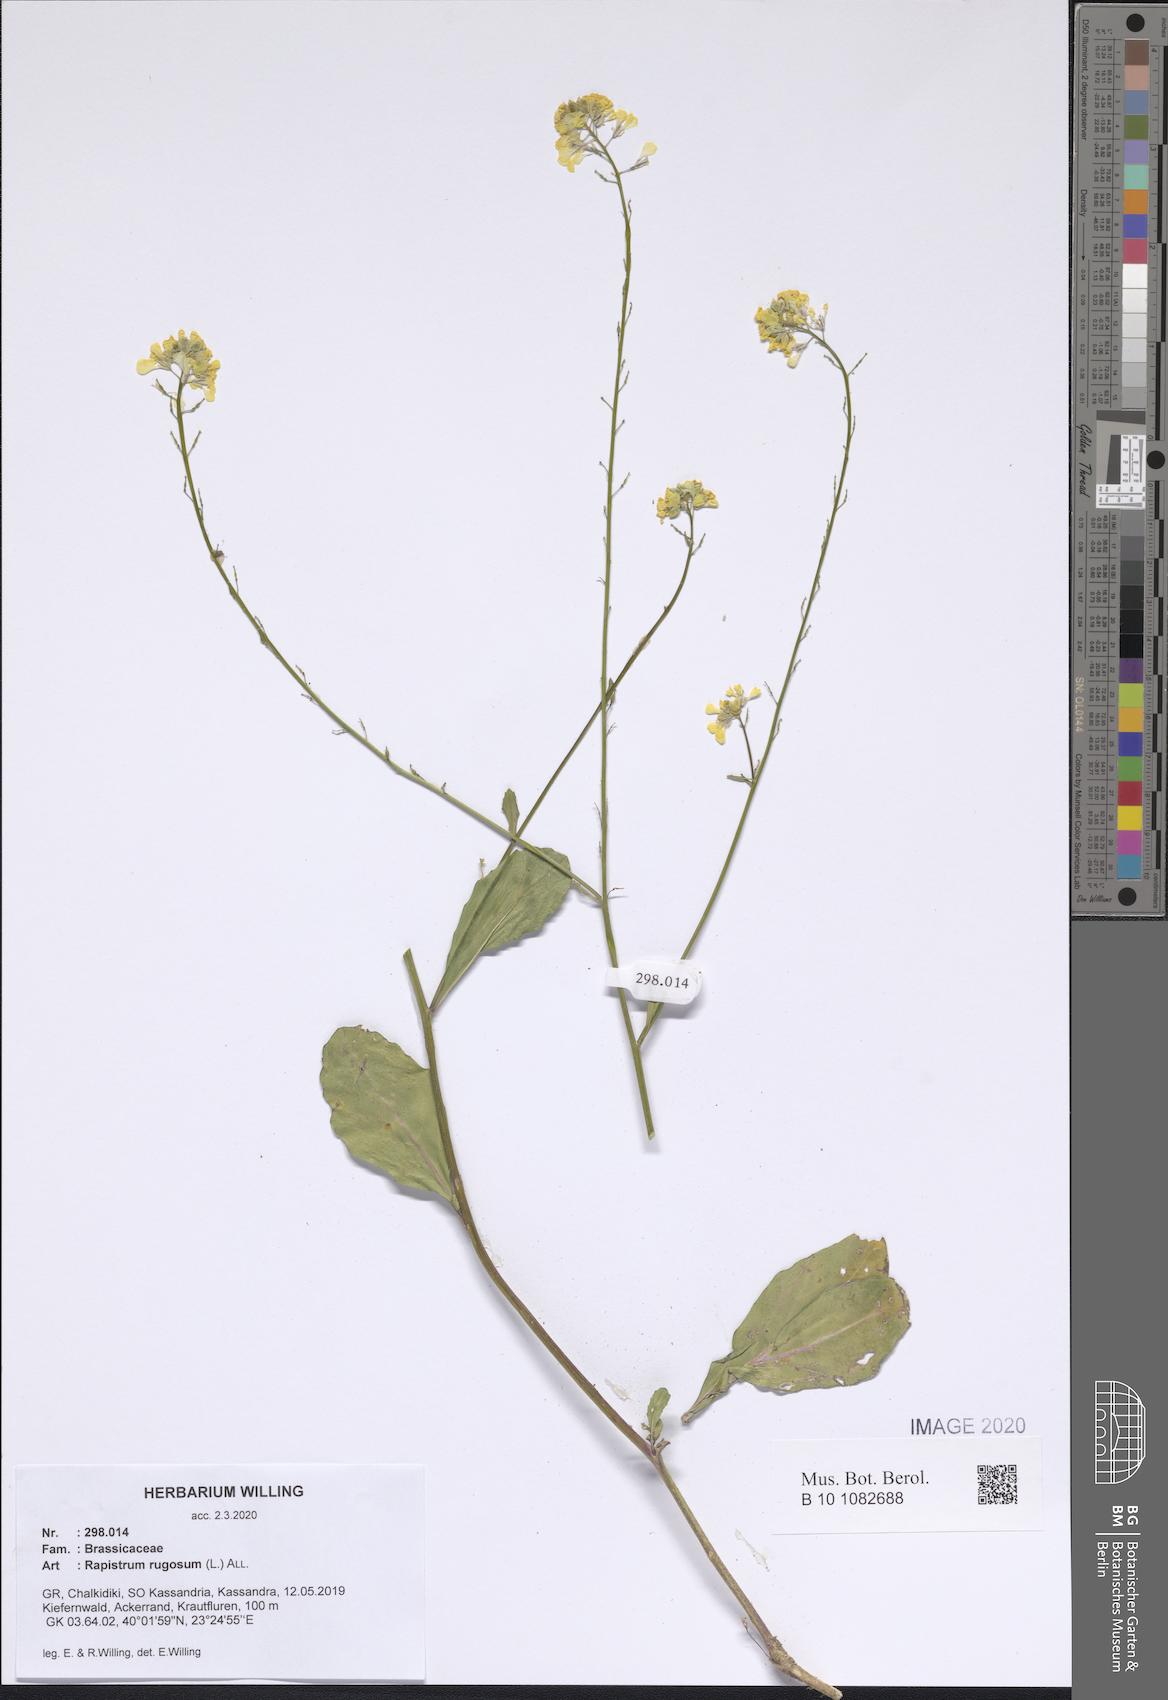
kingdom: Plantae
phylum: Tracheophyta
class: Magnoliopsida
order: Brassicales
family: Brassicaceae
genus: Rapistrum
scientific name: Rapistrum rugosum
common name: Annual bastardcabbage
